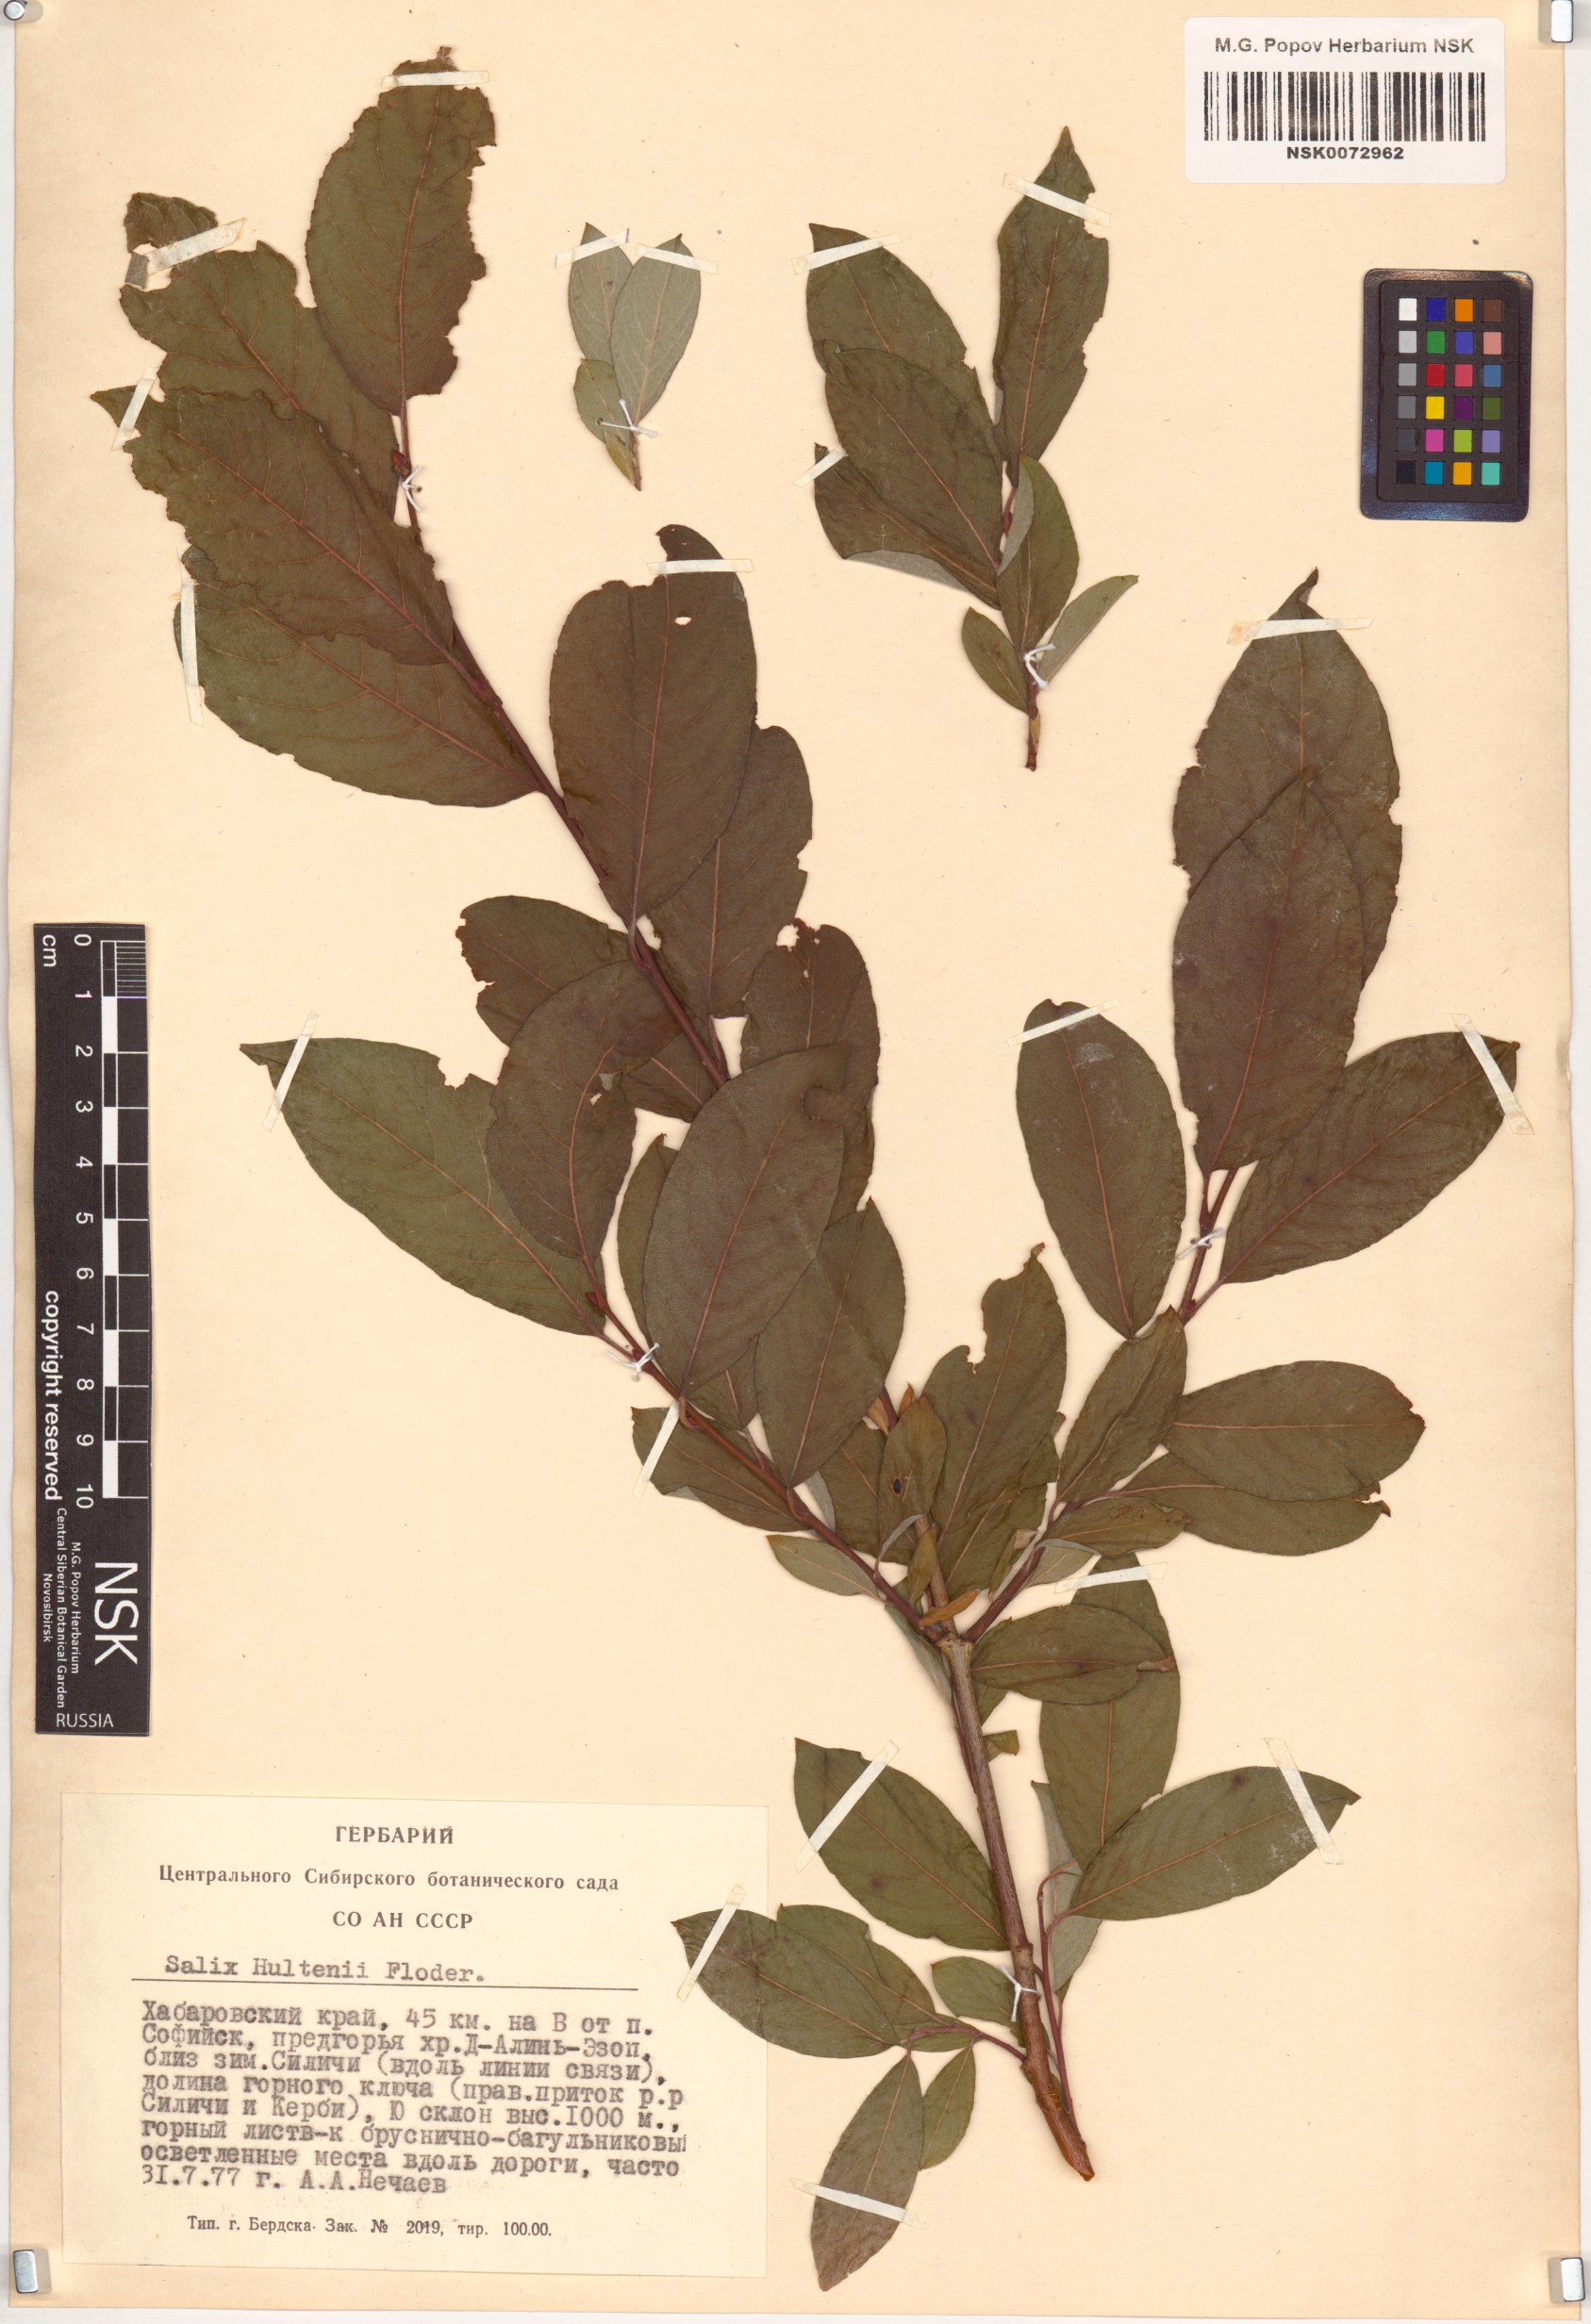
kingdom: Plantae
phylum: Tracheophyta
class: Magnoliopsida
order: Malpighiales
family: Salicaceae
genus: Salix
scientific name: Salix caprea
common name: Goat willow
